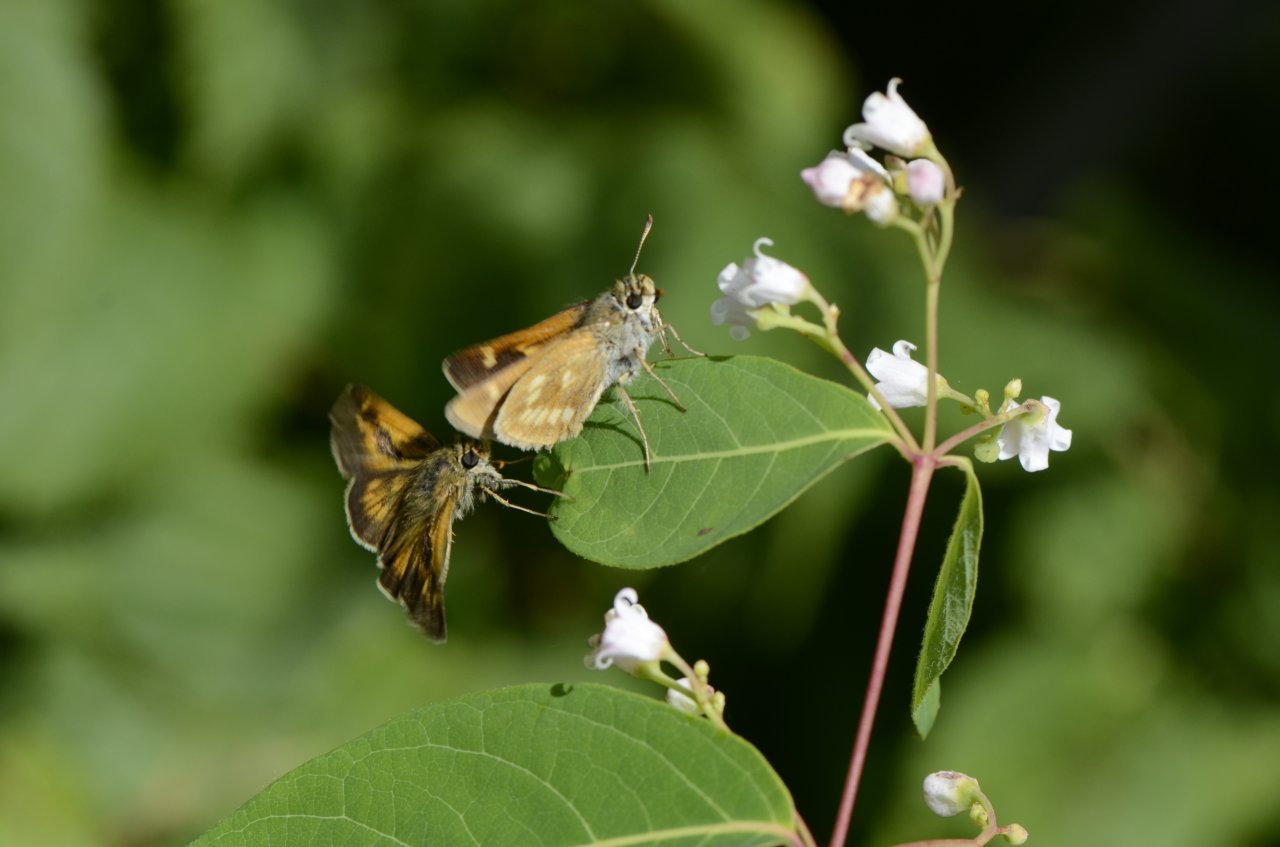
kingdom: Animalia
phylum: Arthropoda
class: Insecta
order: Lepidoptera
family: Hesperiidae
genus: Polites
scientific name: Polites
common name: Long Dash Skipper
